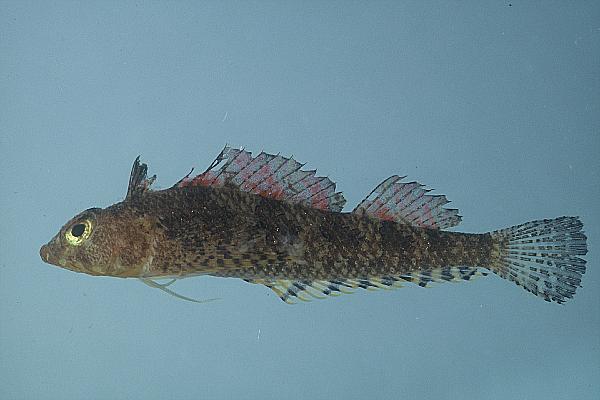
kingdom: Animalia
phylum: Chordata
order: Perciformes
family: Tripterygiidae
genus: Norfolkia
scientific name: Norfolkia brachylepis
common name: Tropical scaly-headed triplefin
